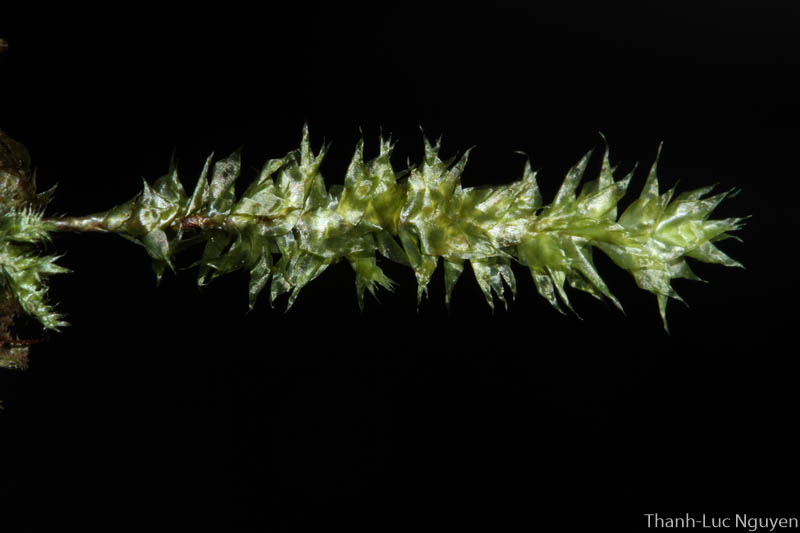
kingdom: Plantae
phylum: Bryophyta
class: Bryopsida
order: Hypnales
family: Pterobryaceae
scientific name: Pterobryaceae
